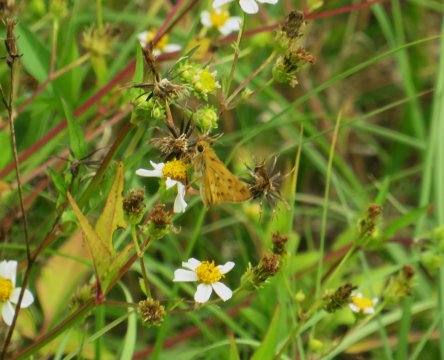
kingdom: Animalia
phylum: Arthropoda
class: Insecta
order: Lepidoptera
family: Hesperiidae
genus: Hylephila
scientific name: Hylephila phyleus
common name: Fiery Skipper
